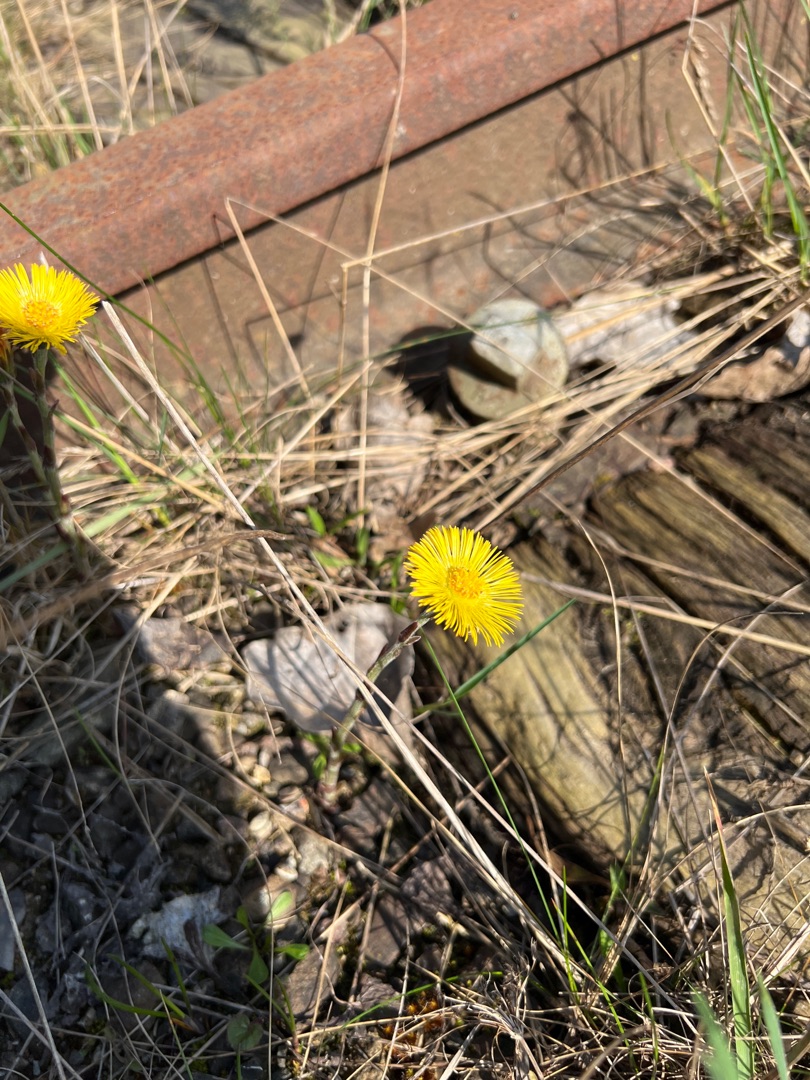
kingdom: Plantae
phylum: Tracheophyta
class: Magnoliopsida
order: Asterales
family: Asteraceae
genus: Tussilago
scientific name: Tussilago farfara
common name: Følfod
